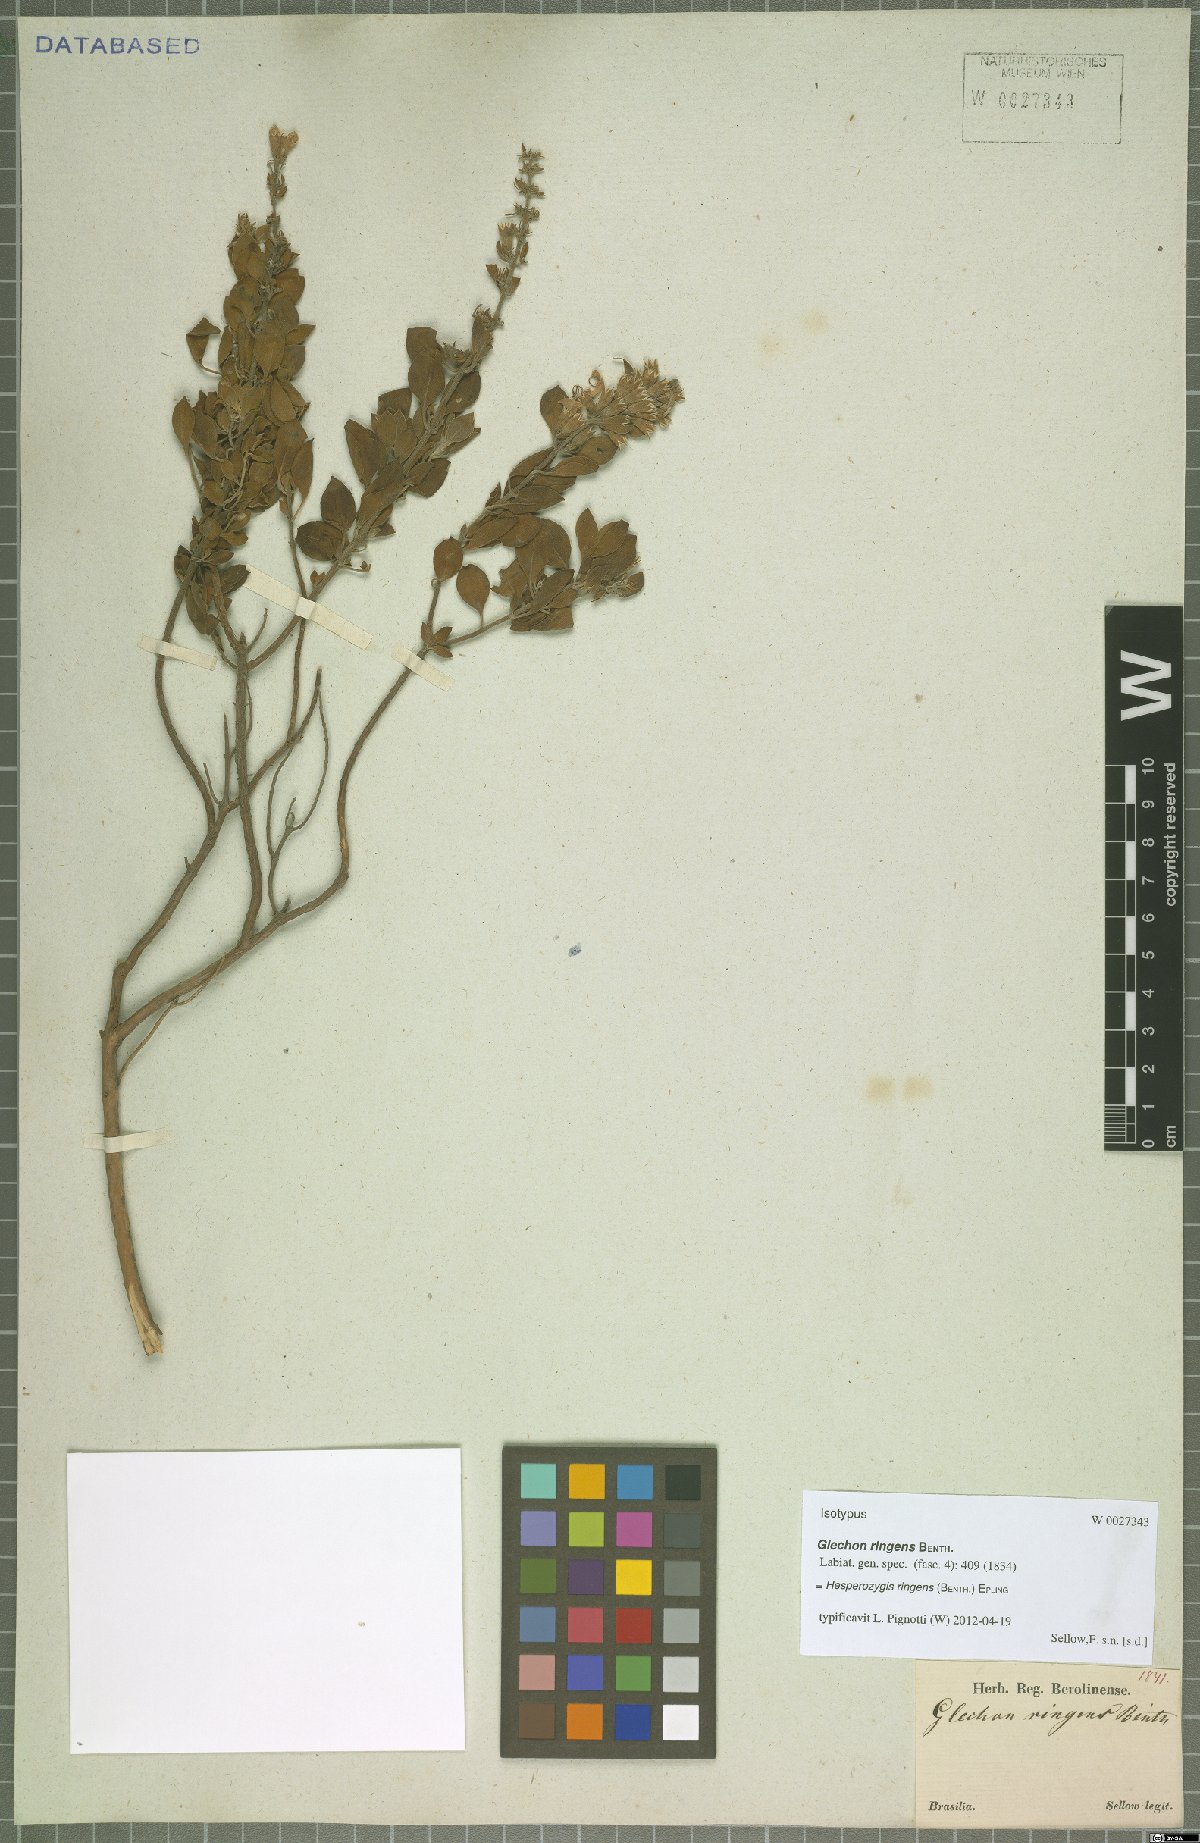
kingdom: Plantae
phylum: Tracheophyta
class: Magnoliopsida
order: Lamiales
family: Lamiaceae
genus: Hesperozygis
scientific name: Hesperozygis ringens
